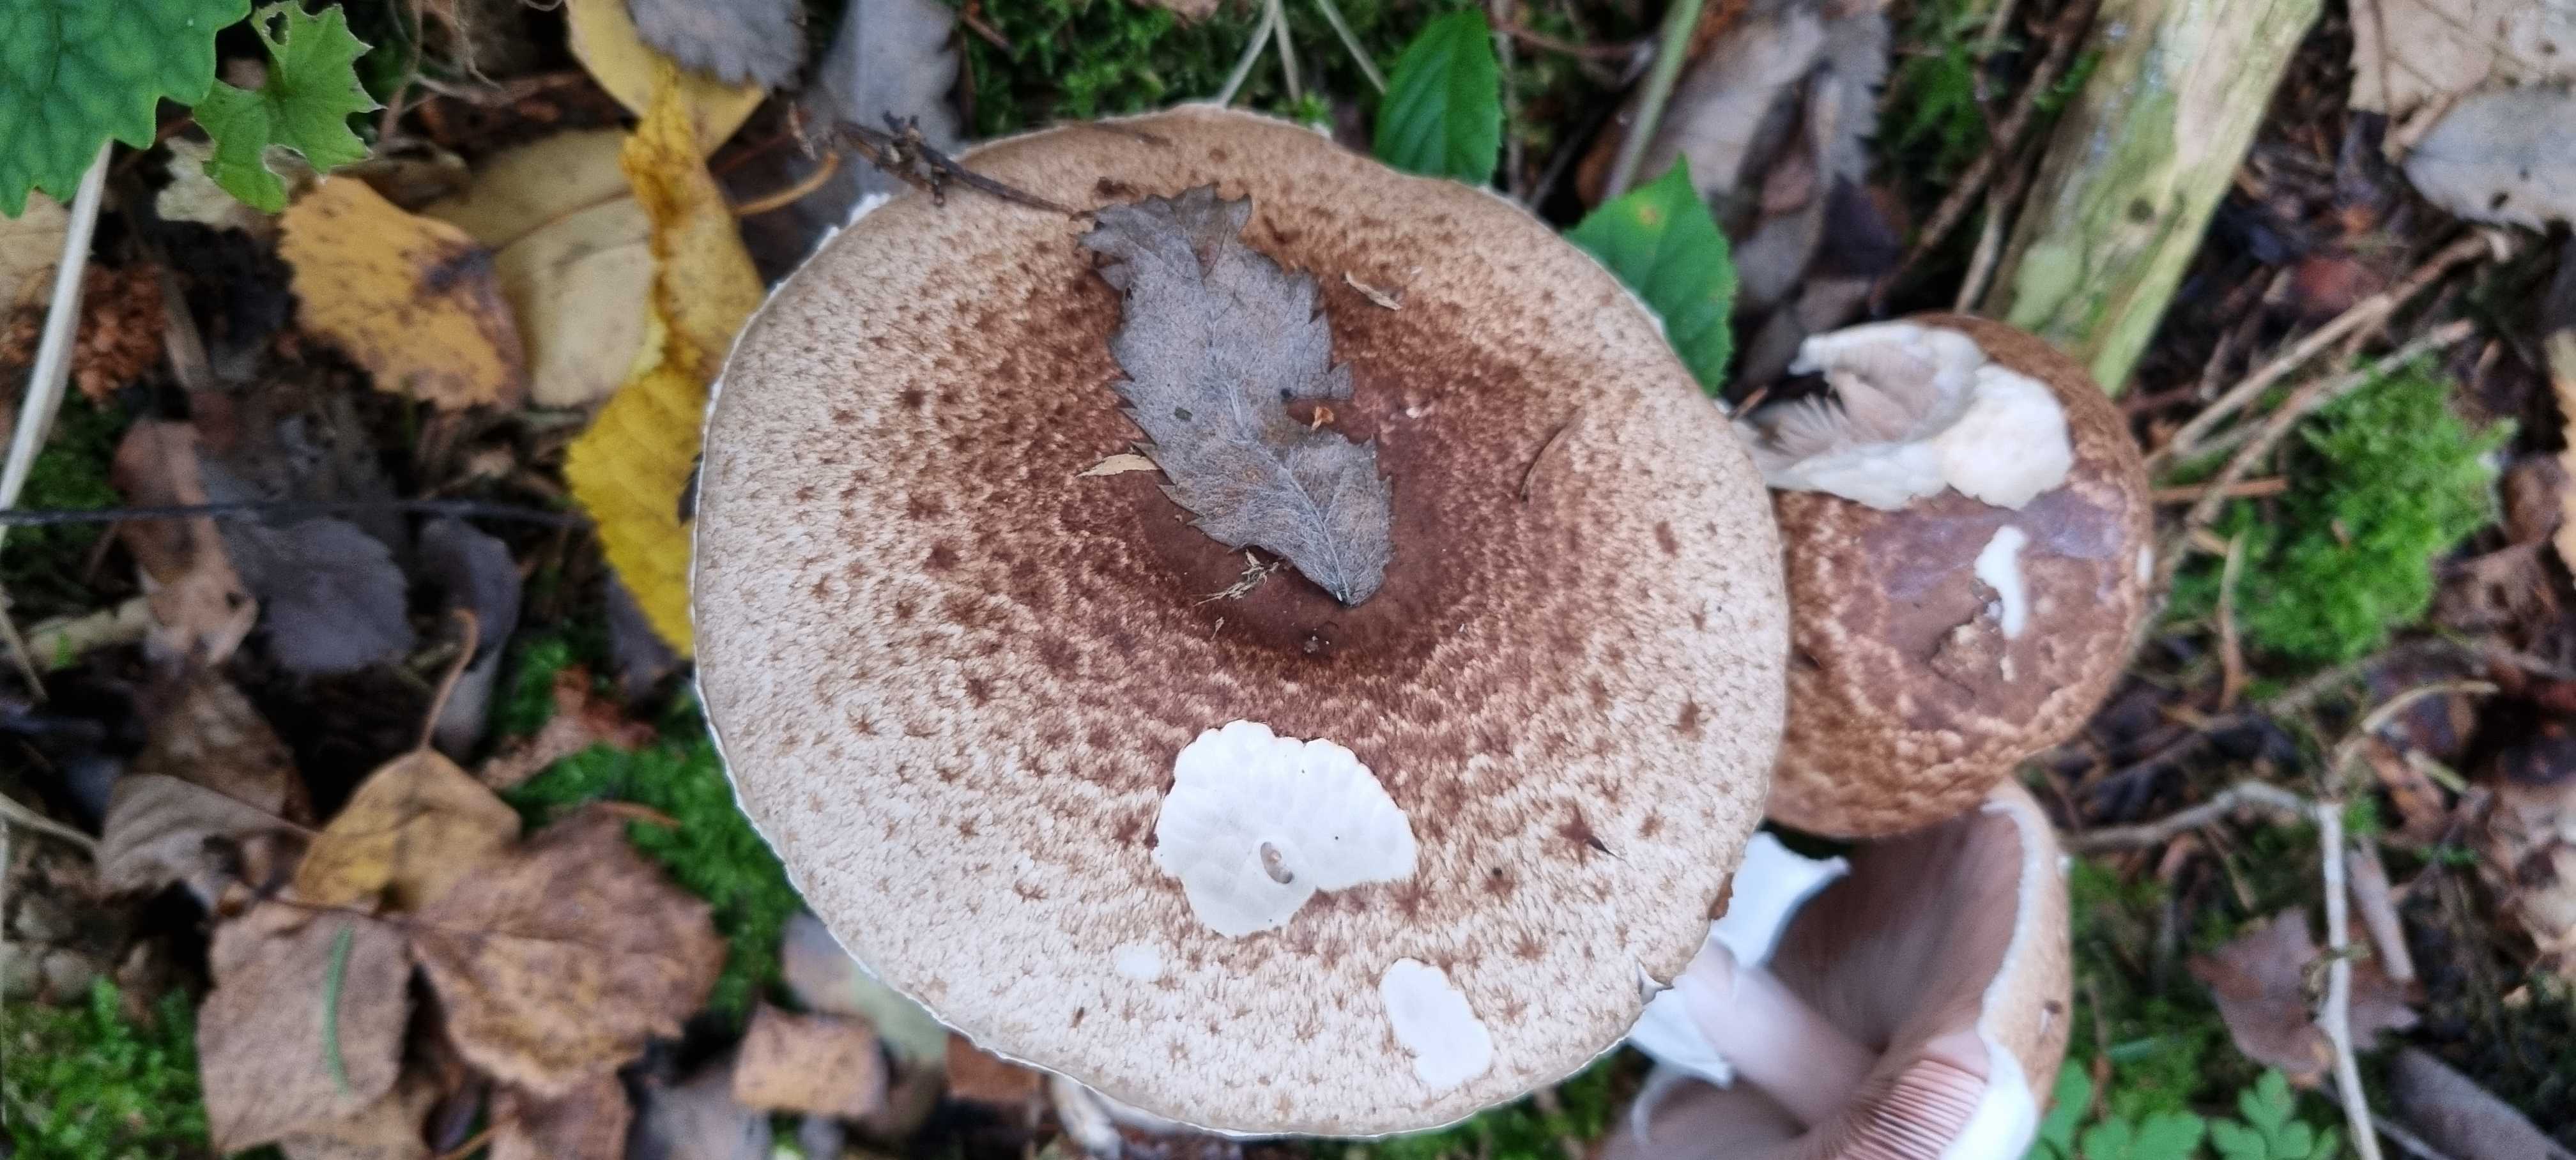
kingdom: Fungi
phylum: Basidiomycota
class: Agaricomycetes
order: Agaricales
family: Agaricaceae
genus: Agaricus
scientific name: Agaricus impudicus
